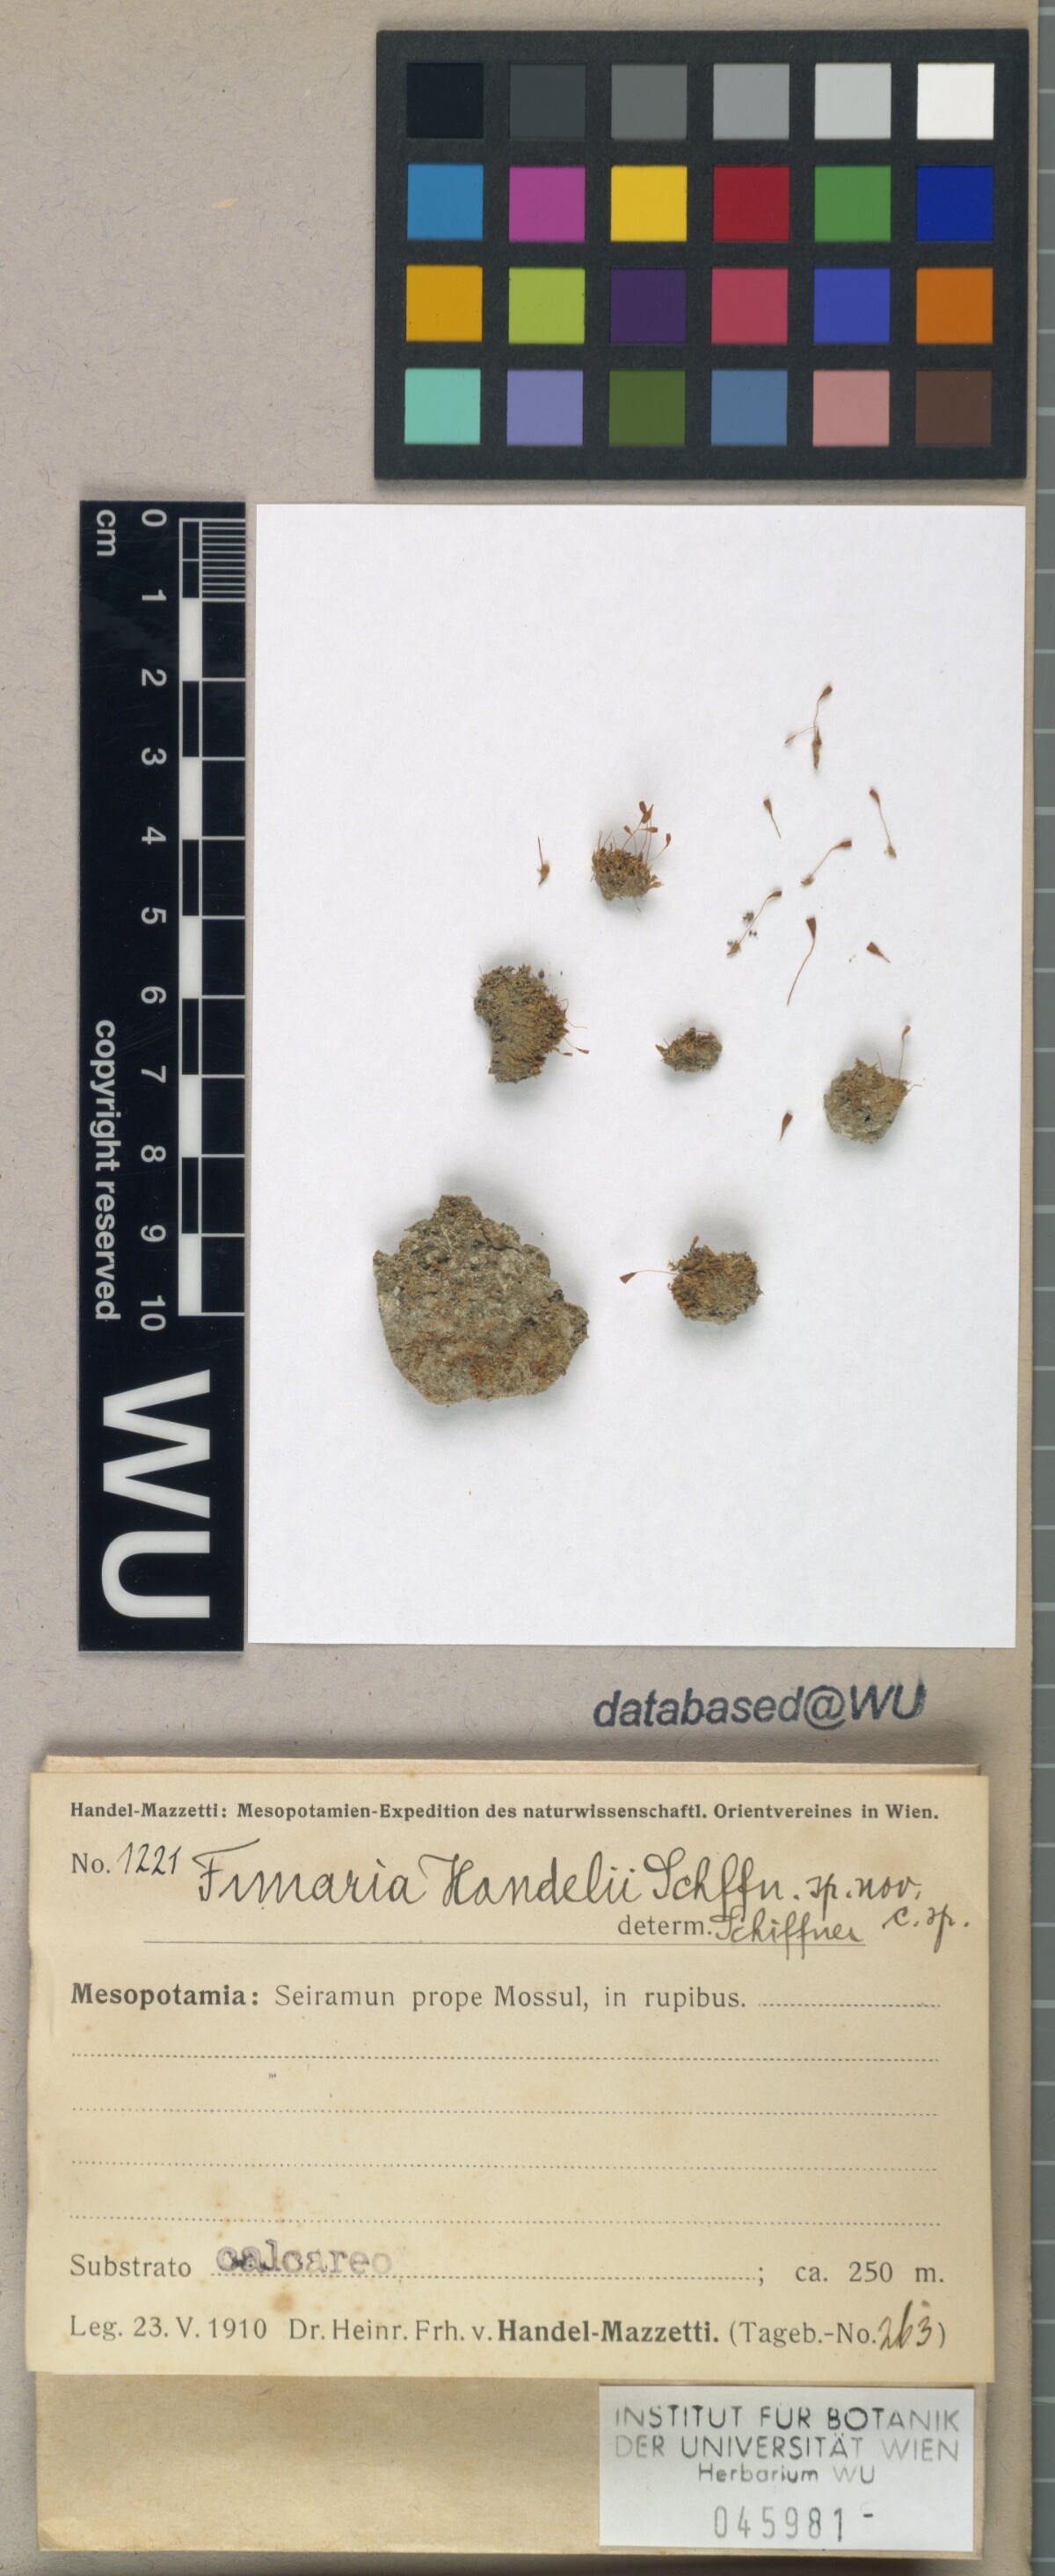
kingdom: Plantae
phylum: Bryophyta
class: Bryopsida
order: Funariales
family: Funariaceae
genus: Entosthodon
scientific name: Entosthodon handelii
